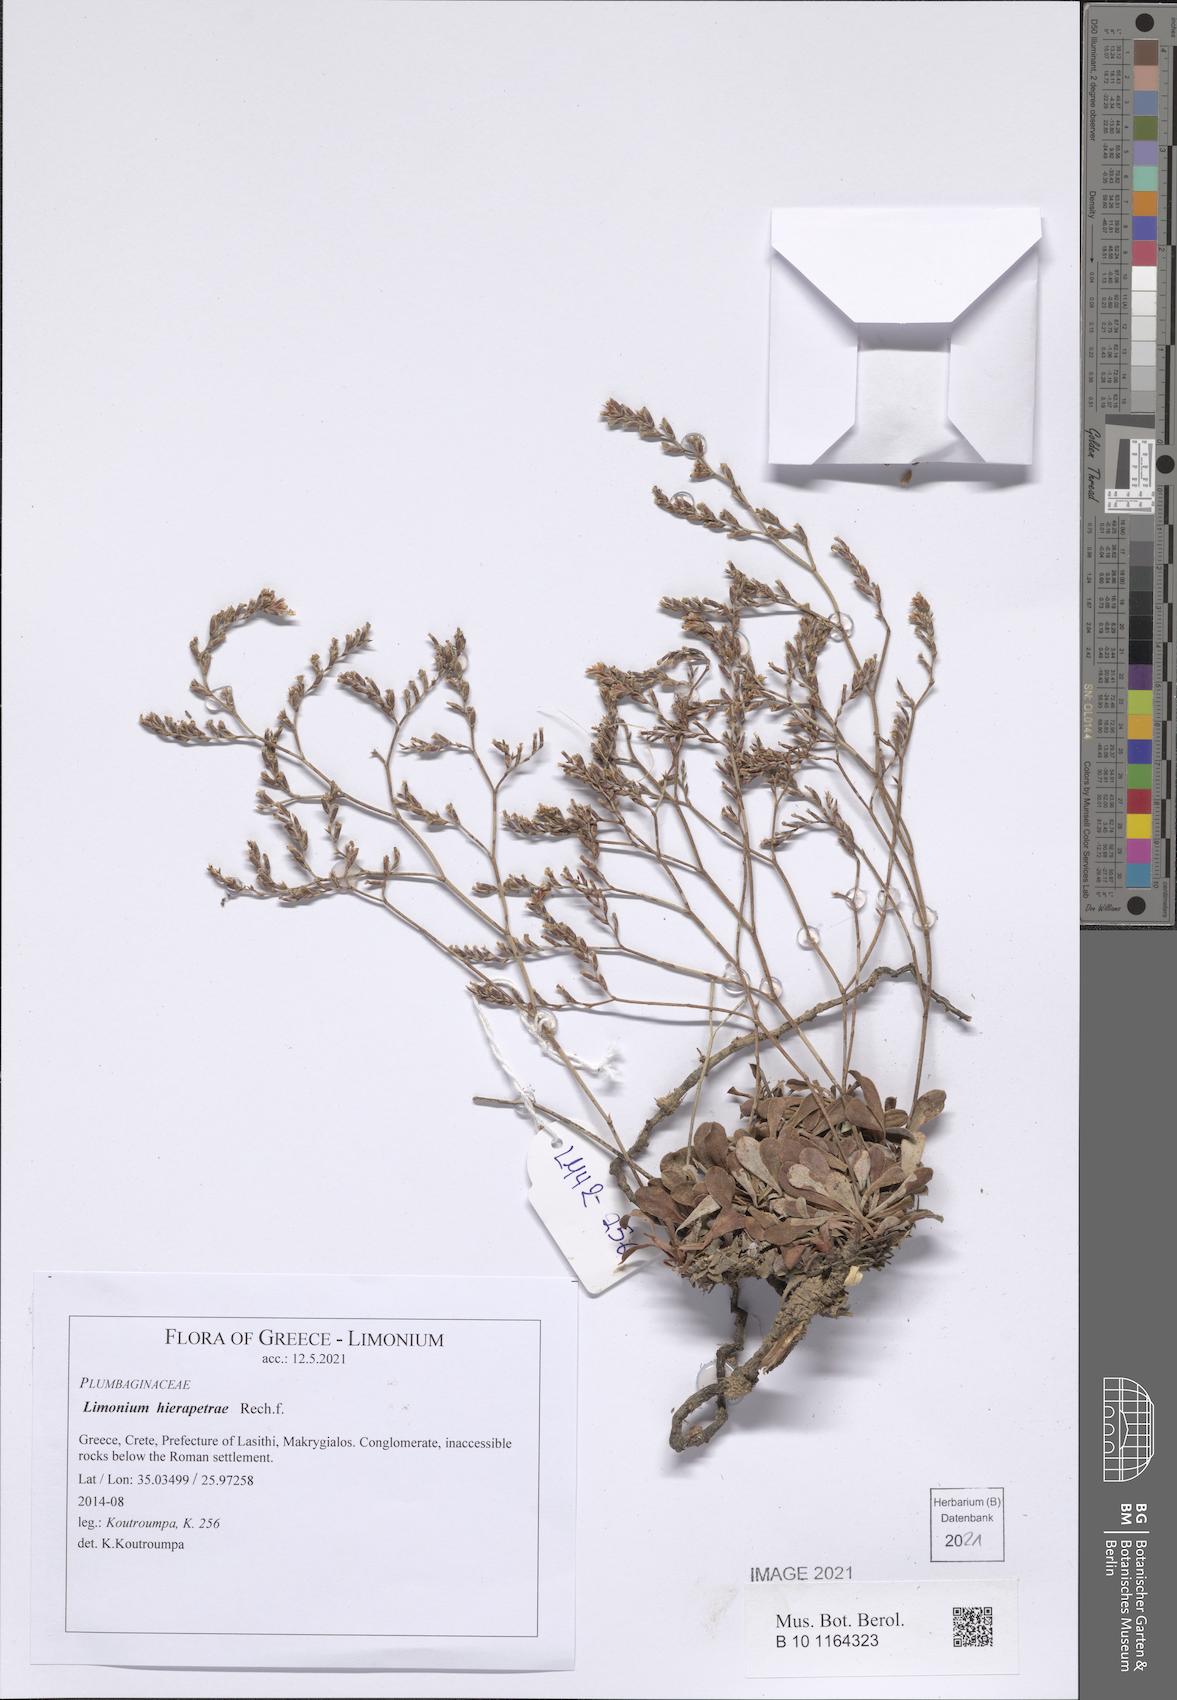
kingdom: Plantae
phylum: Tracheophyta
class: Magnoliopsida
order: Caryophyllales
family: Plumbaginaceae
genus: Limonium
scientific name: Limonium hierapetrae
